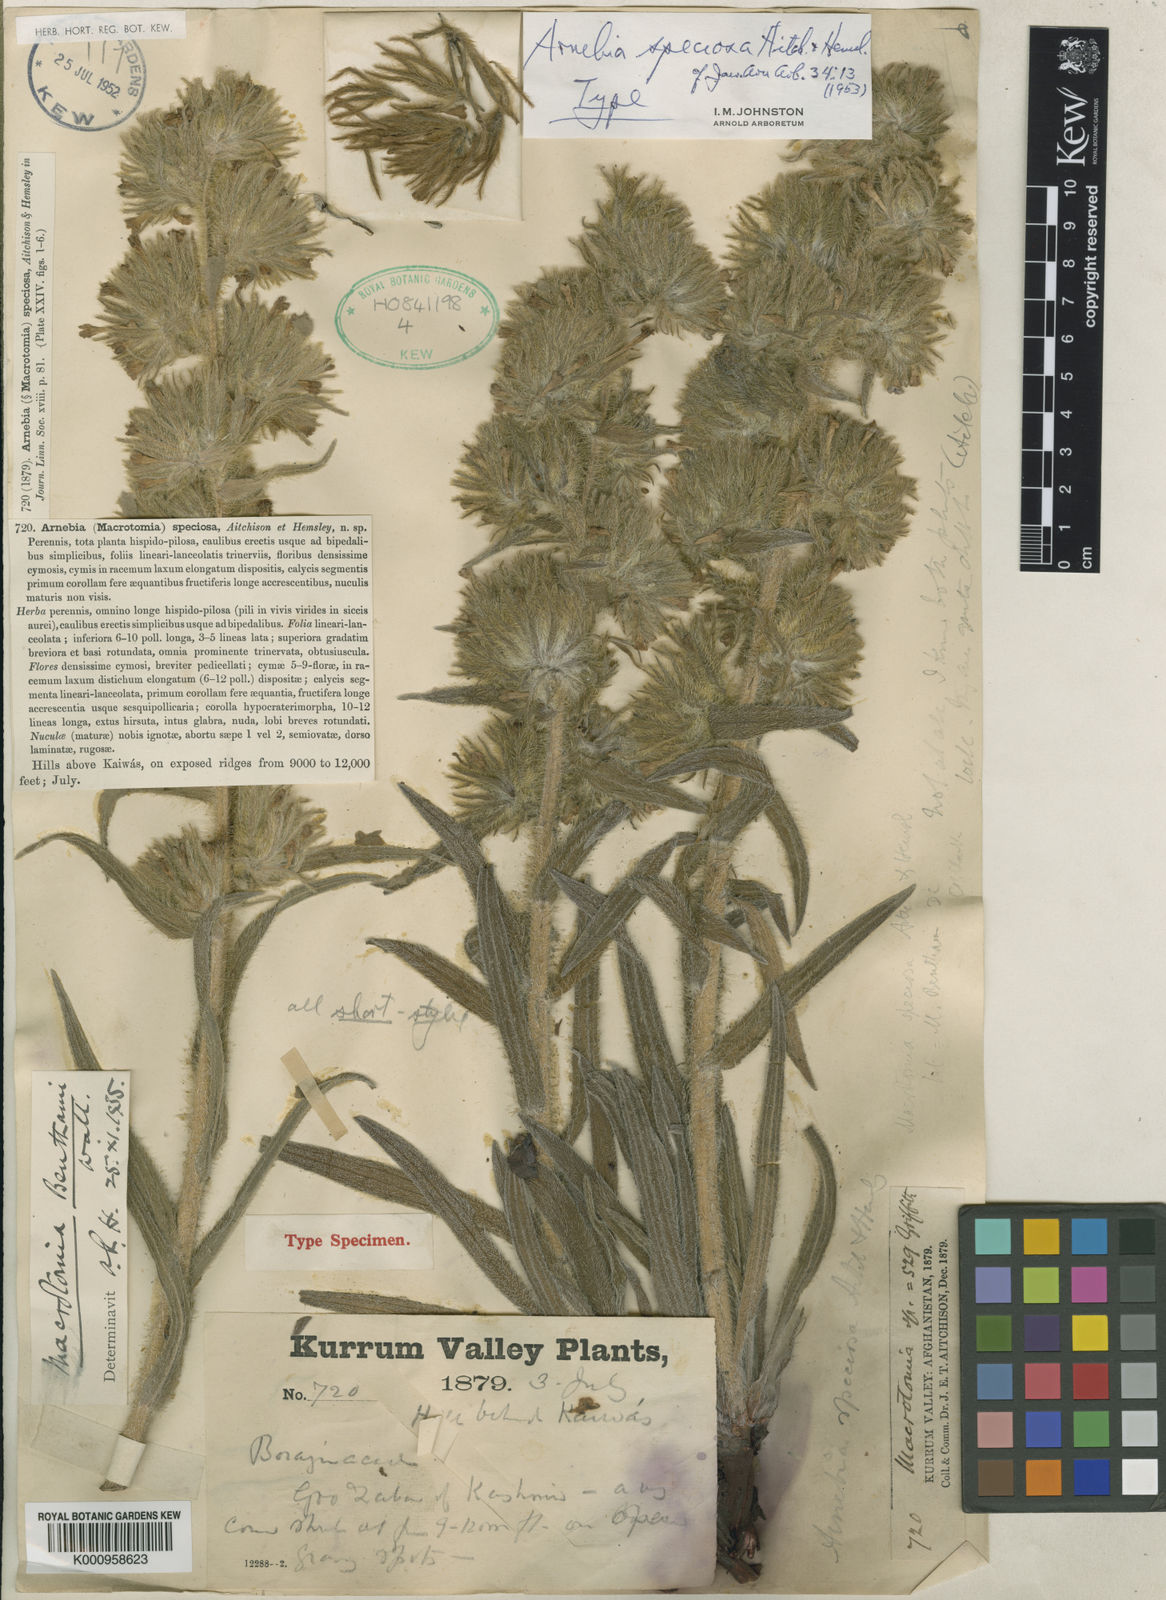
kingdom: Plantae
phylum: Tracheophyta
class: Magnoliopsida
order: Boraginales
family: Boraginaceae
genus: Arnebia
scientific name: Arnebia speciosa
